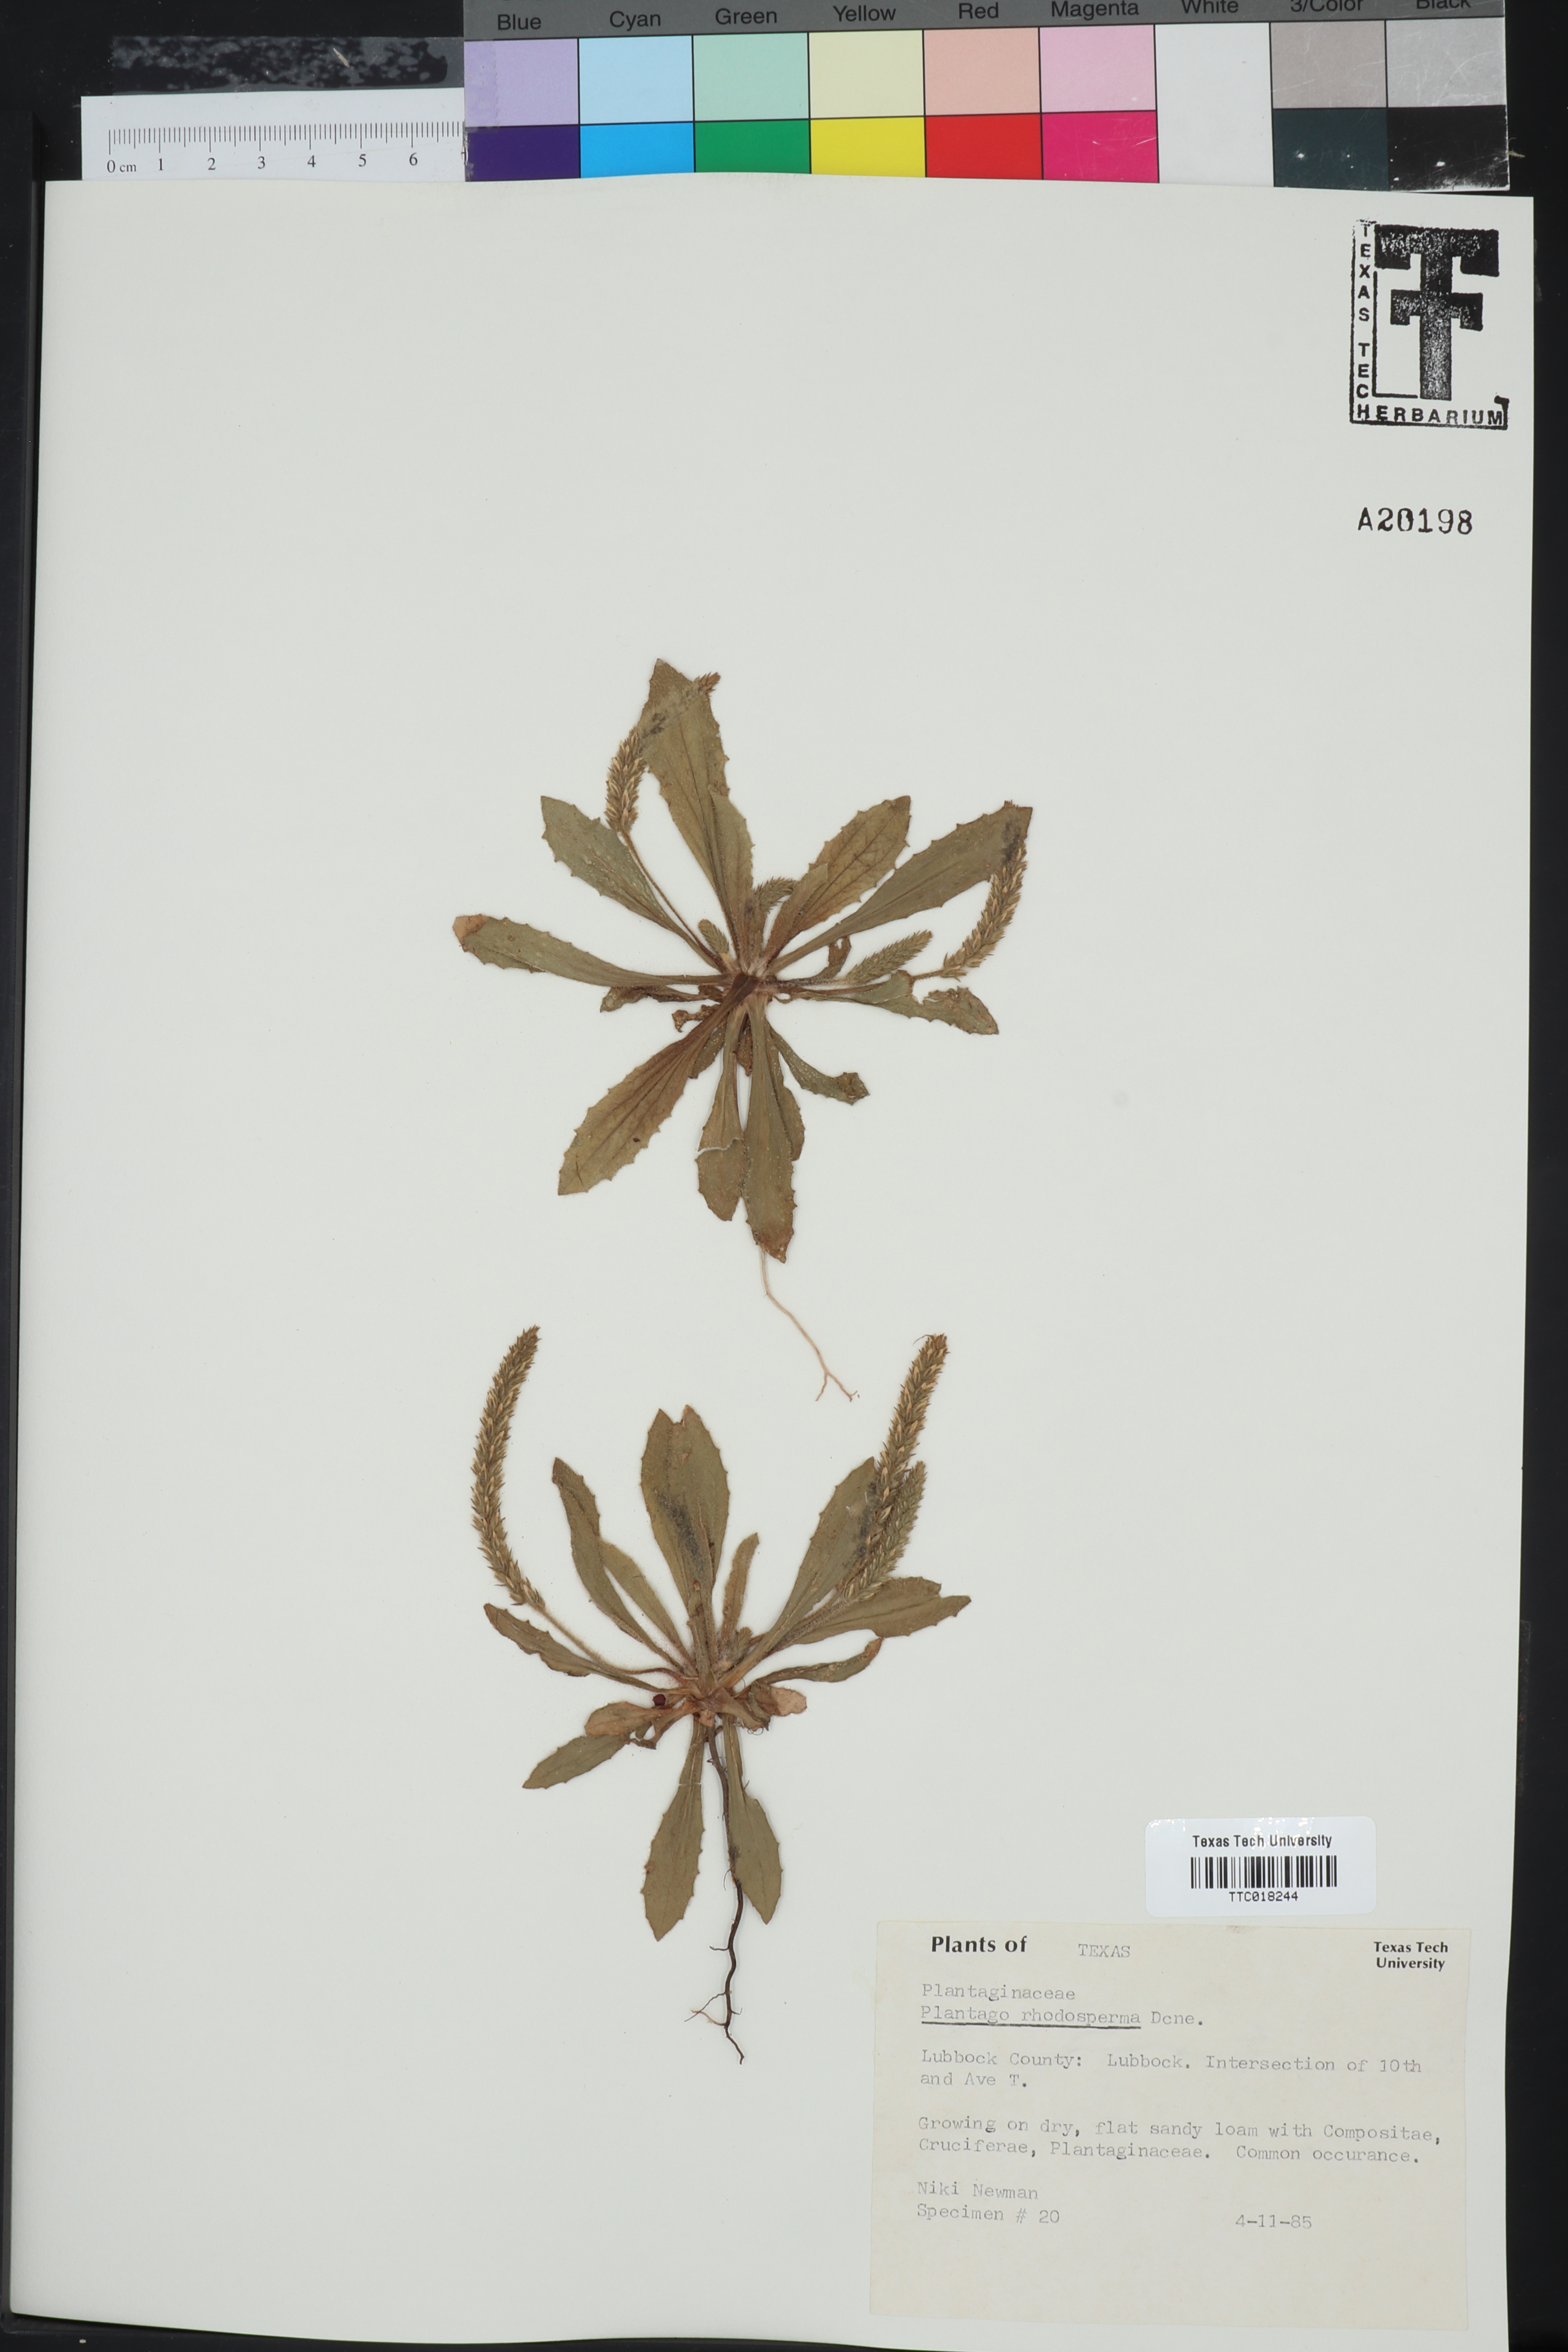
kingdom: Plantae
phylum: Tracheophyta
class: Magnoliopsida
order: Lamiales
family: Plantaginaceae
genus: Plantago
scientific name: Plantago rhodosperma
